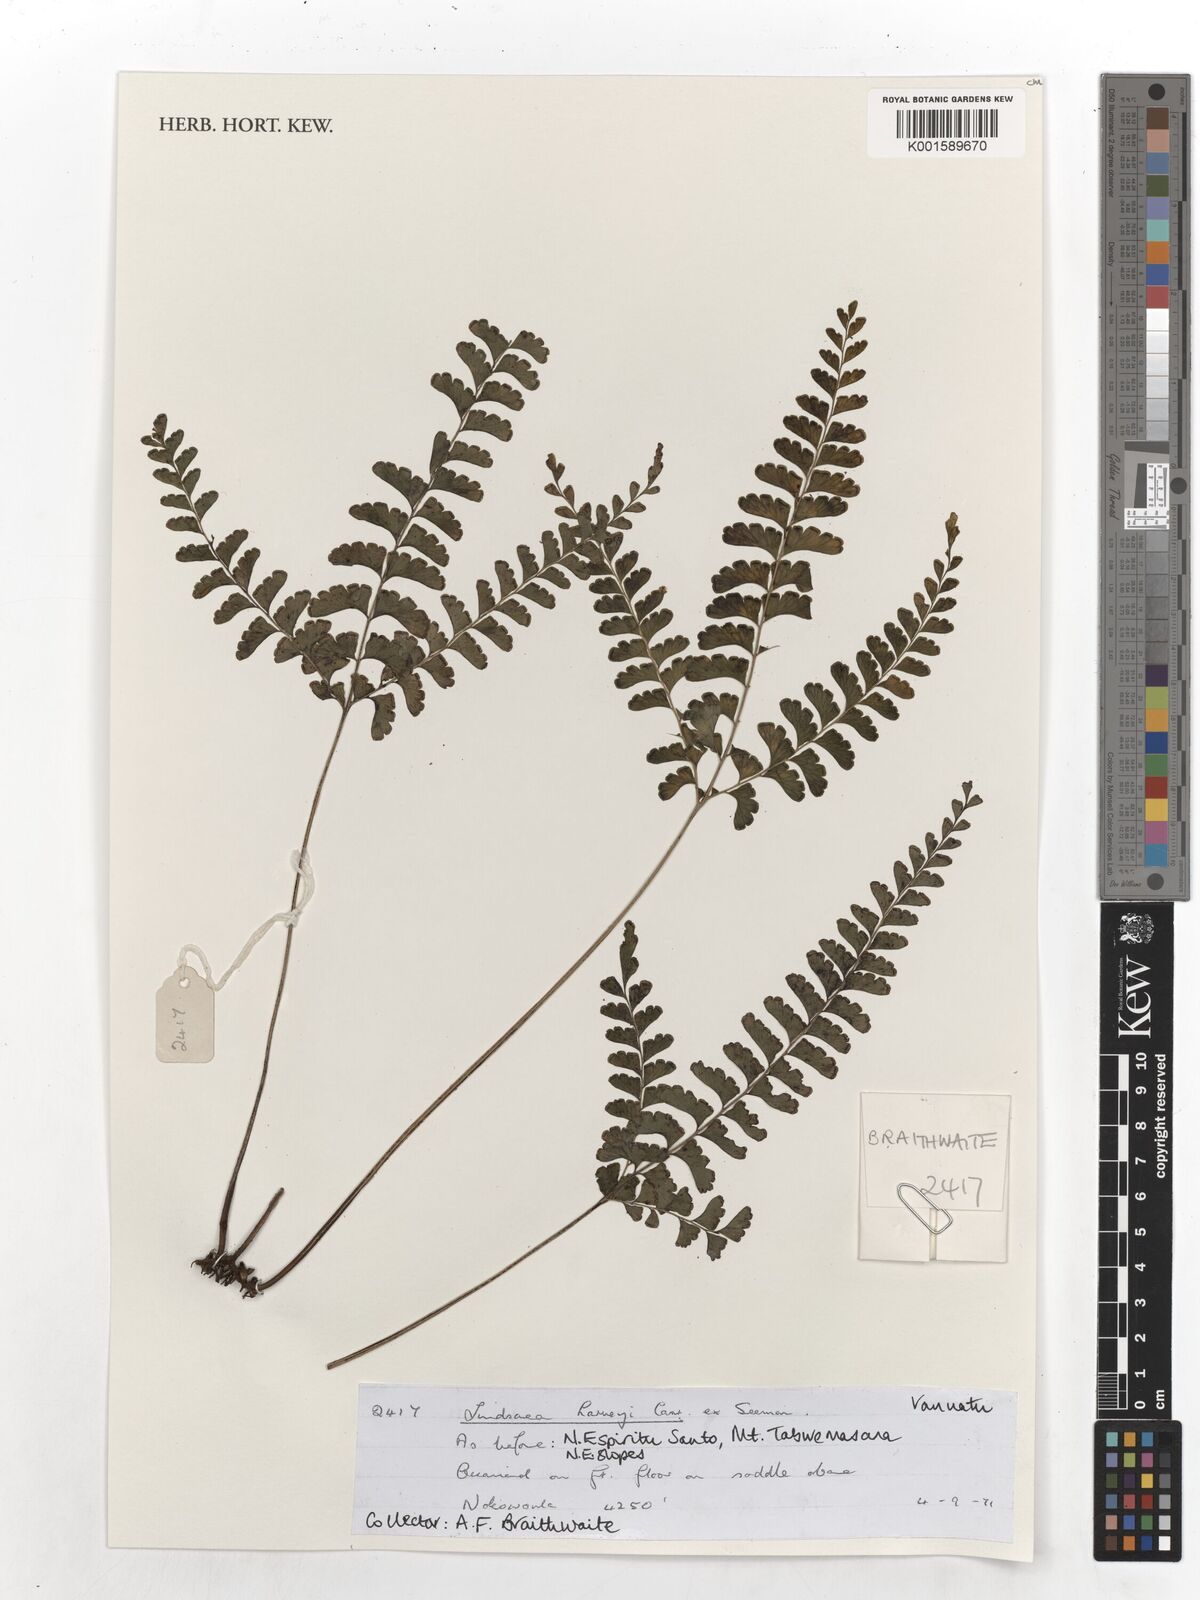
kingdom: Plantae
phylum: Tracheophyta
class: Polypodiopsida
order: Polypodiales
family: Lindsaeaceae
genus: Lindsaea
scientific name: Lindsaea harveyi
